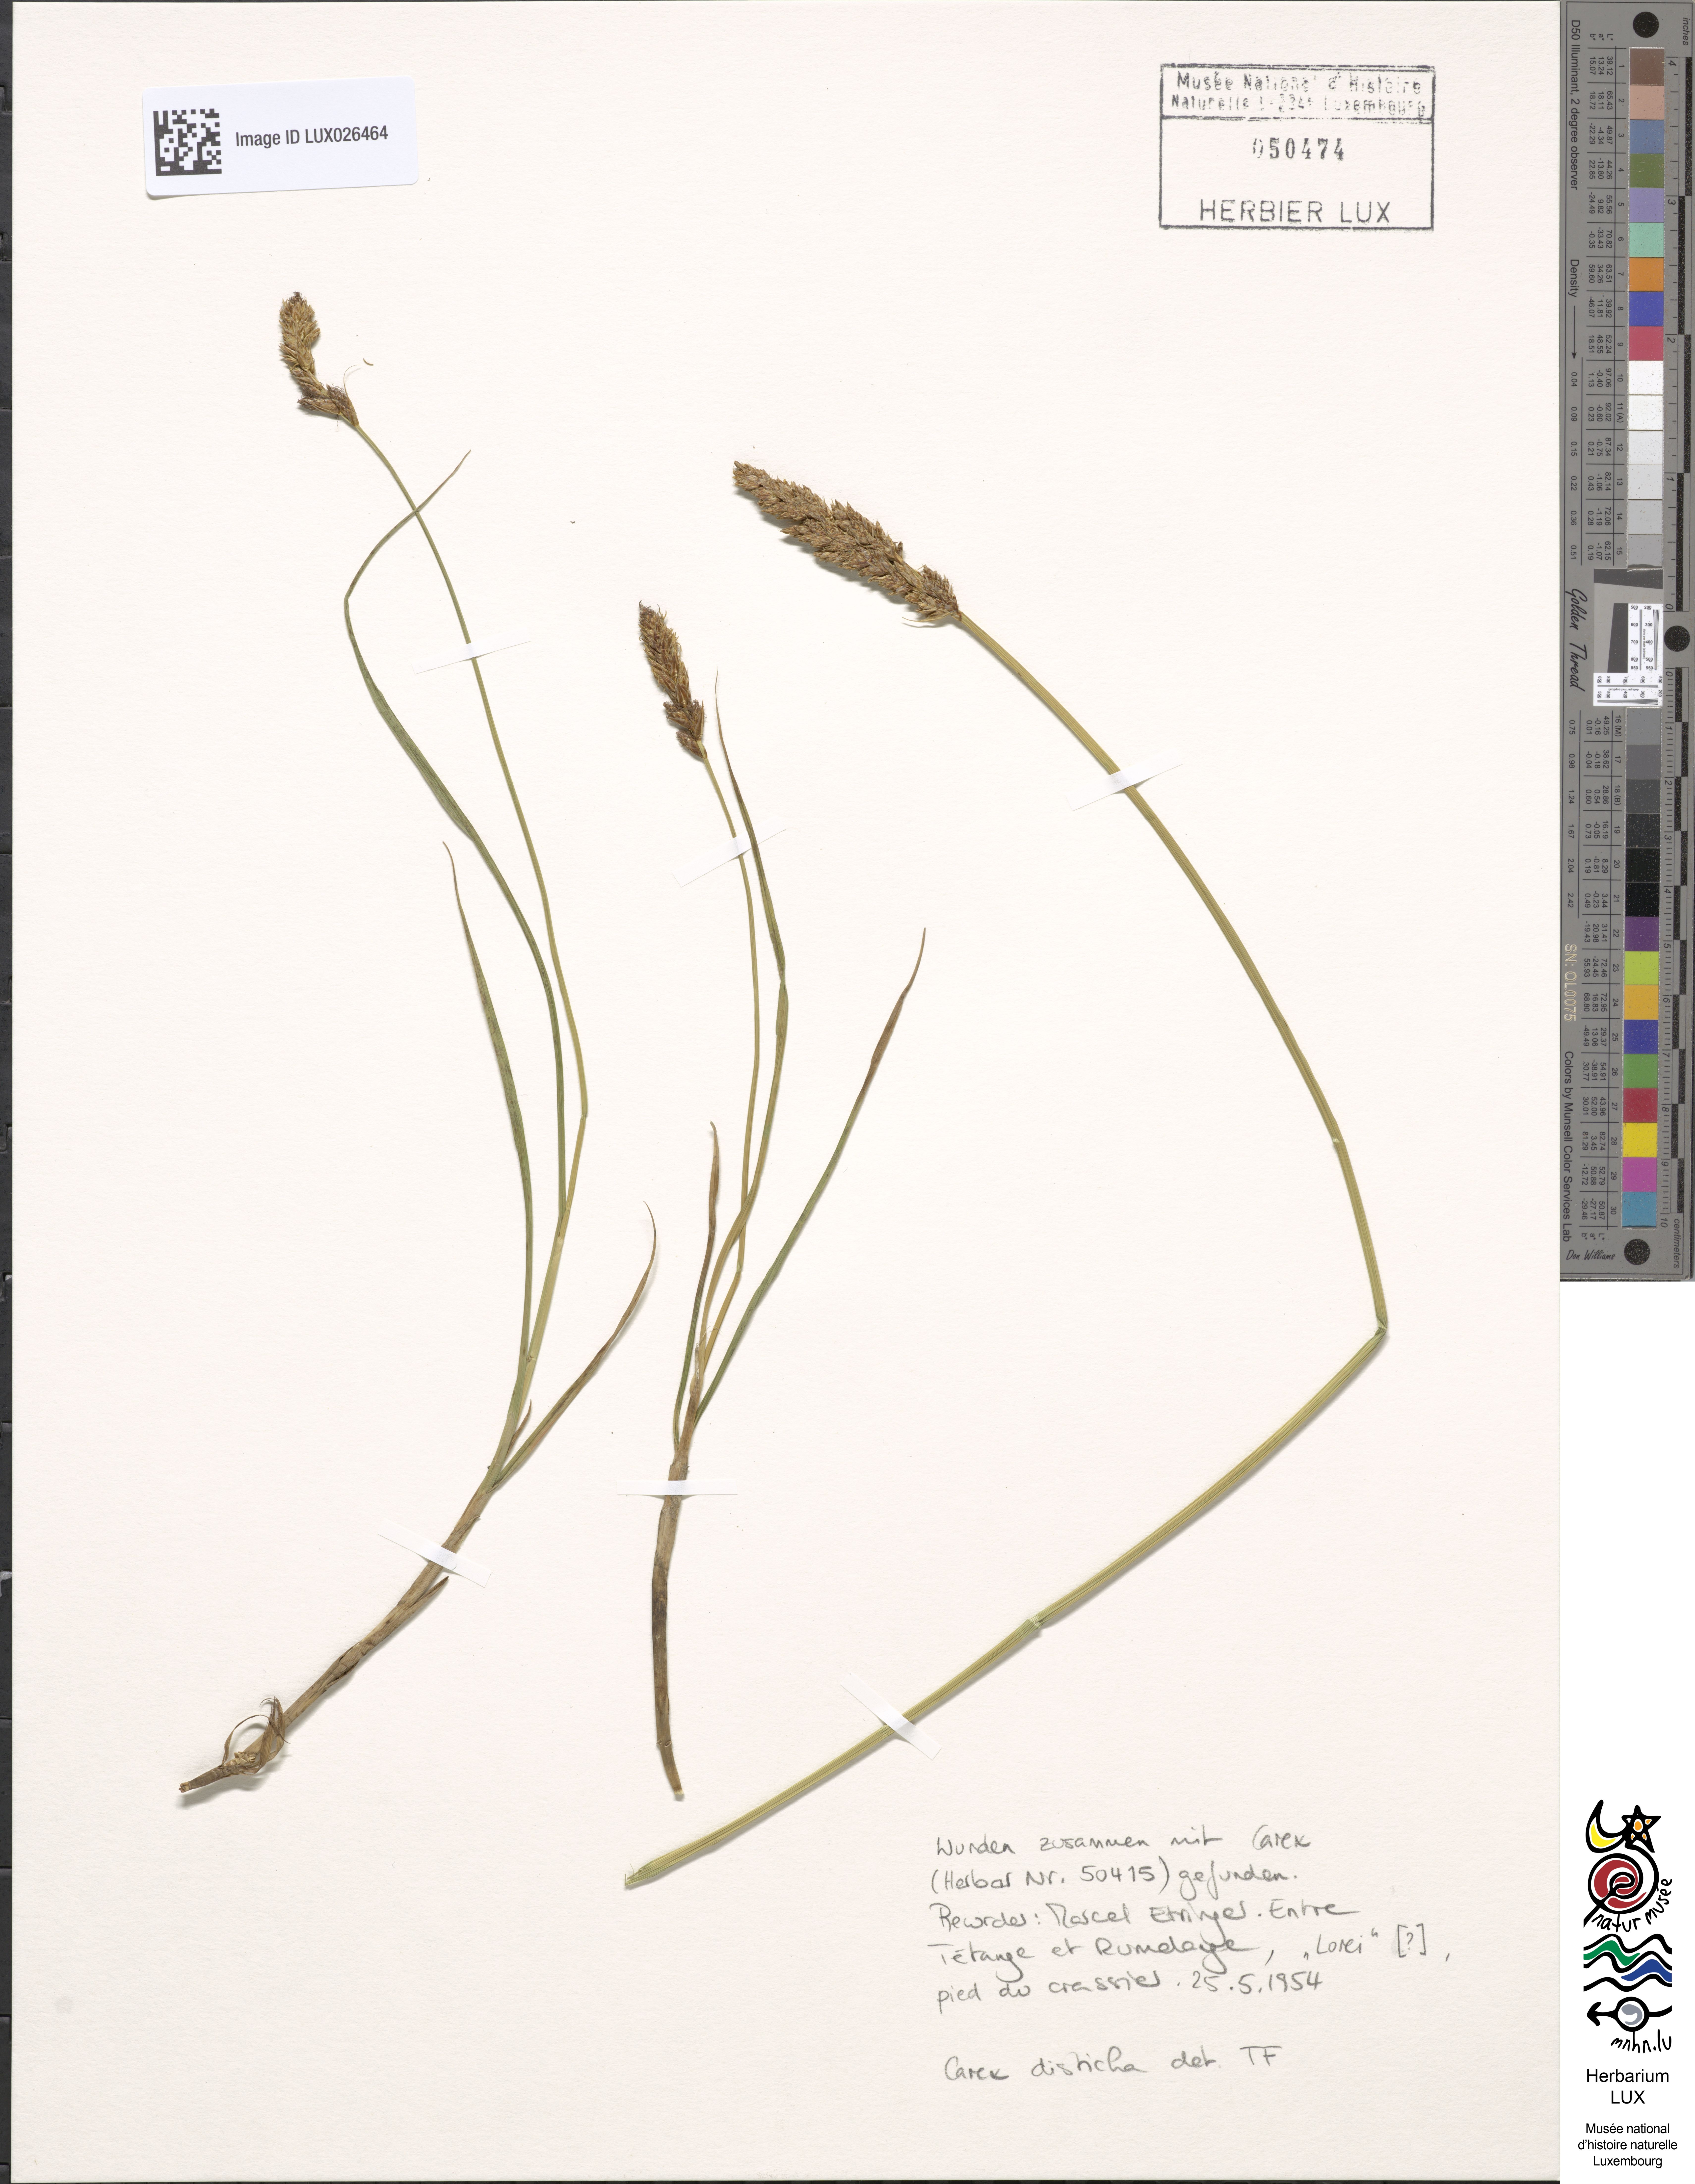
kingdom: Plantae
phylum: Tracheophyta
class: Liliopsida
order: Poales
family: Cyperaceae
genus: Carex
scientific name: Carex disticha
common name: Brown sedge
